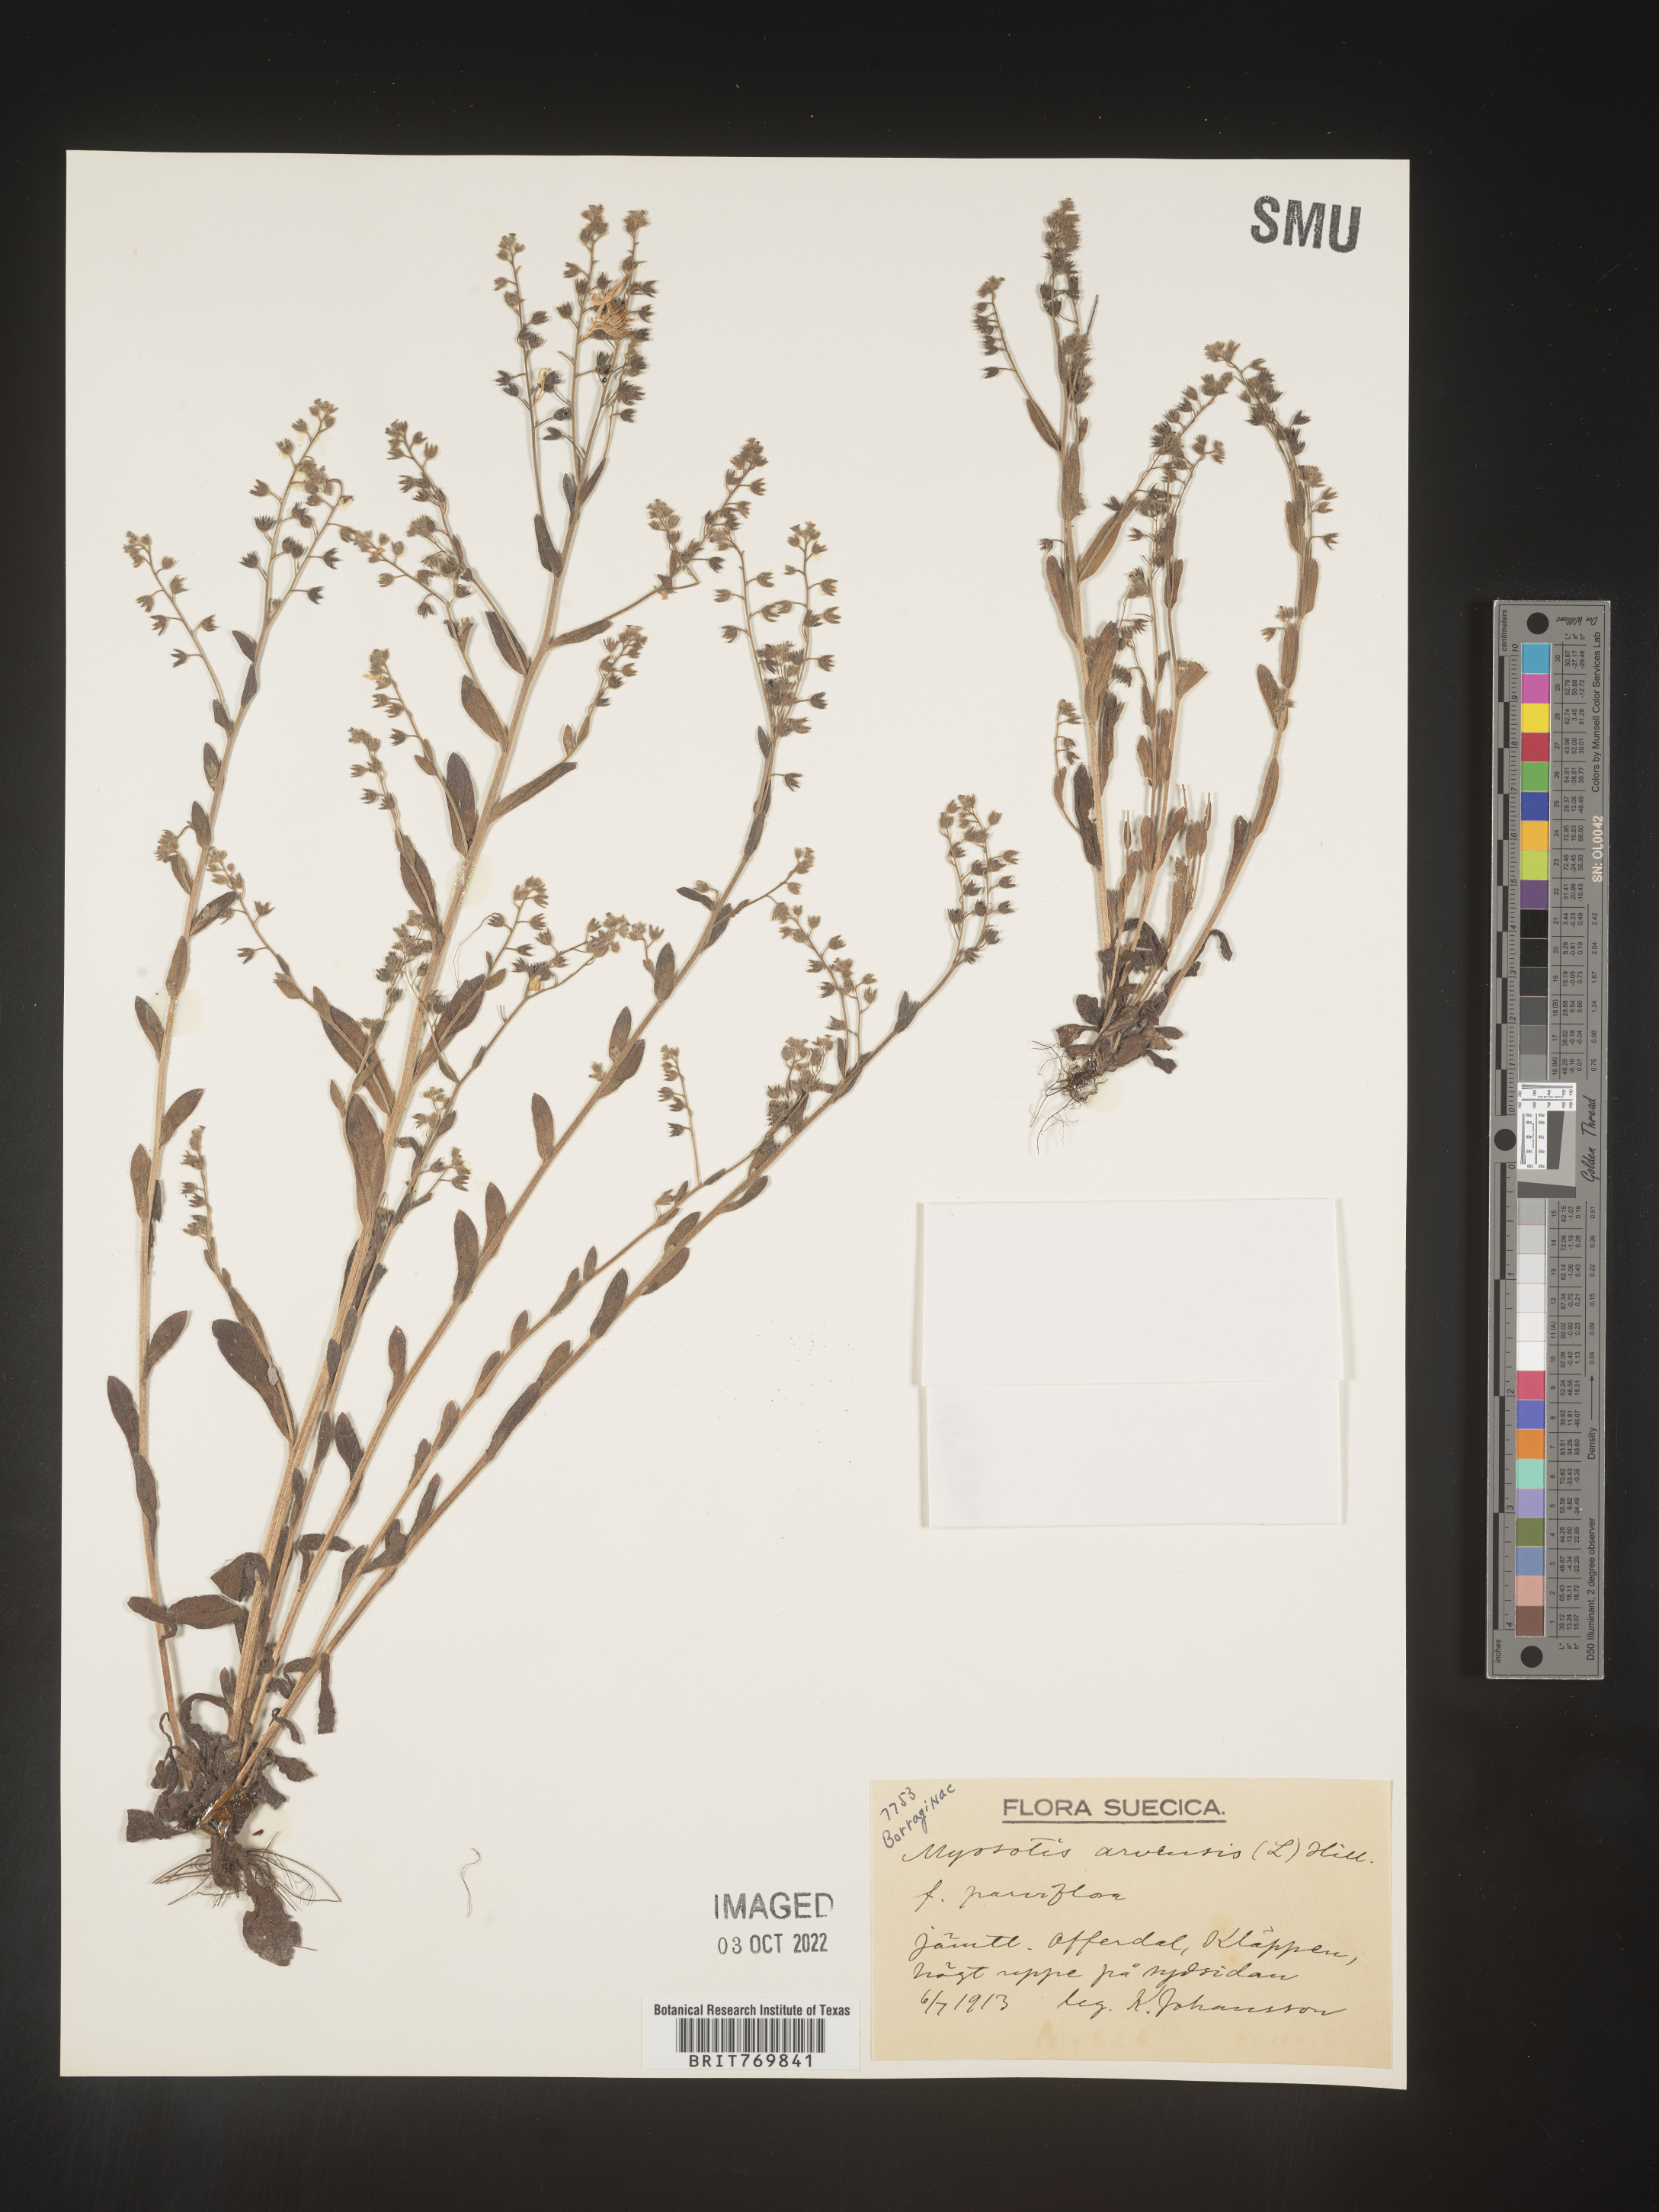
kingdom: Plantae
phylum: Tracheophyta
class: Magnoliopsida
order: Boraginales
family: Boraginaceae
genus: Myosotis
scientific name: Myosotis
